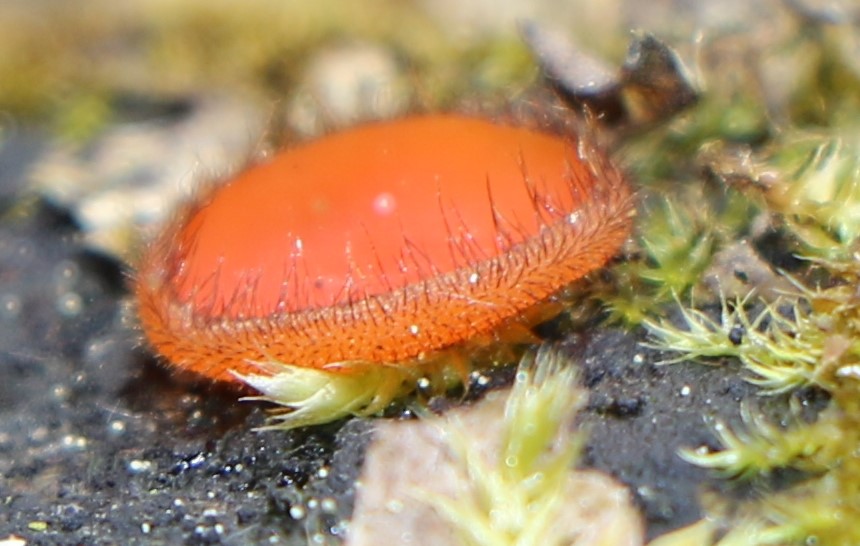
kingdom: Fungi
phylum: Ascomycota
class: Pezizomycetes
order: Pezizales
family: Pyronemataceae
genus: Scutellinia
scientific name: Scutellinia scutellata
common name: frynset skjoldbæger
